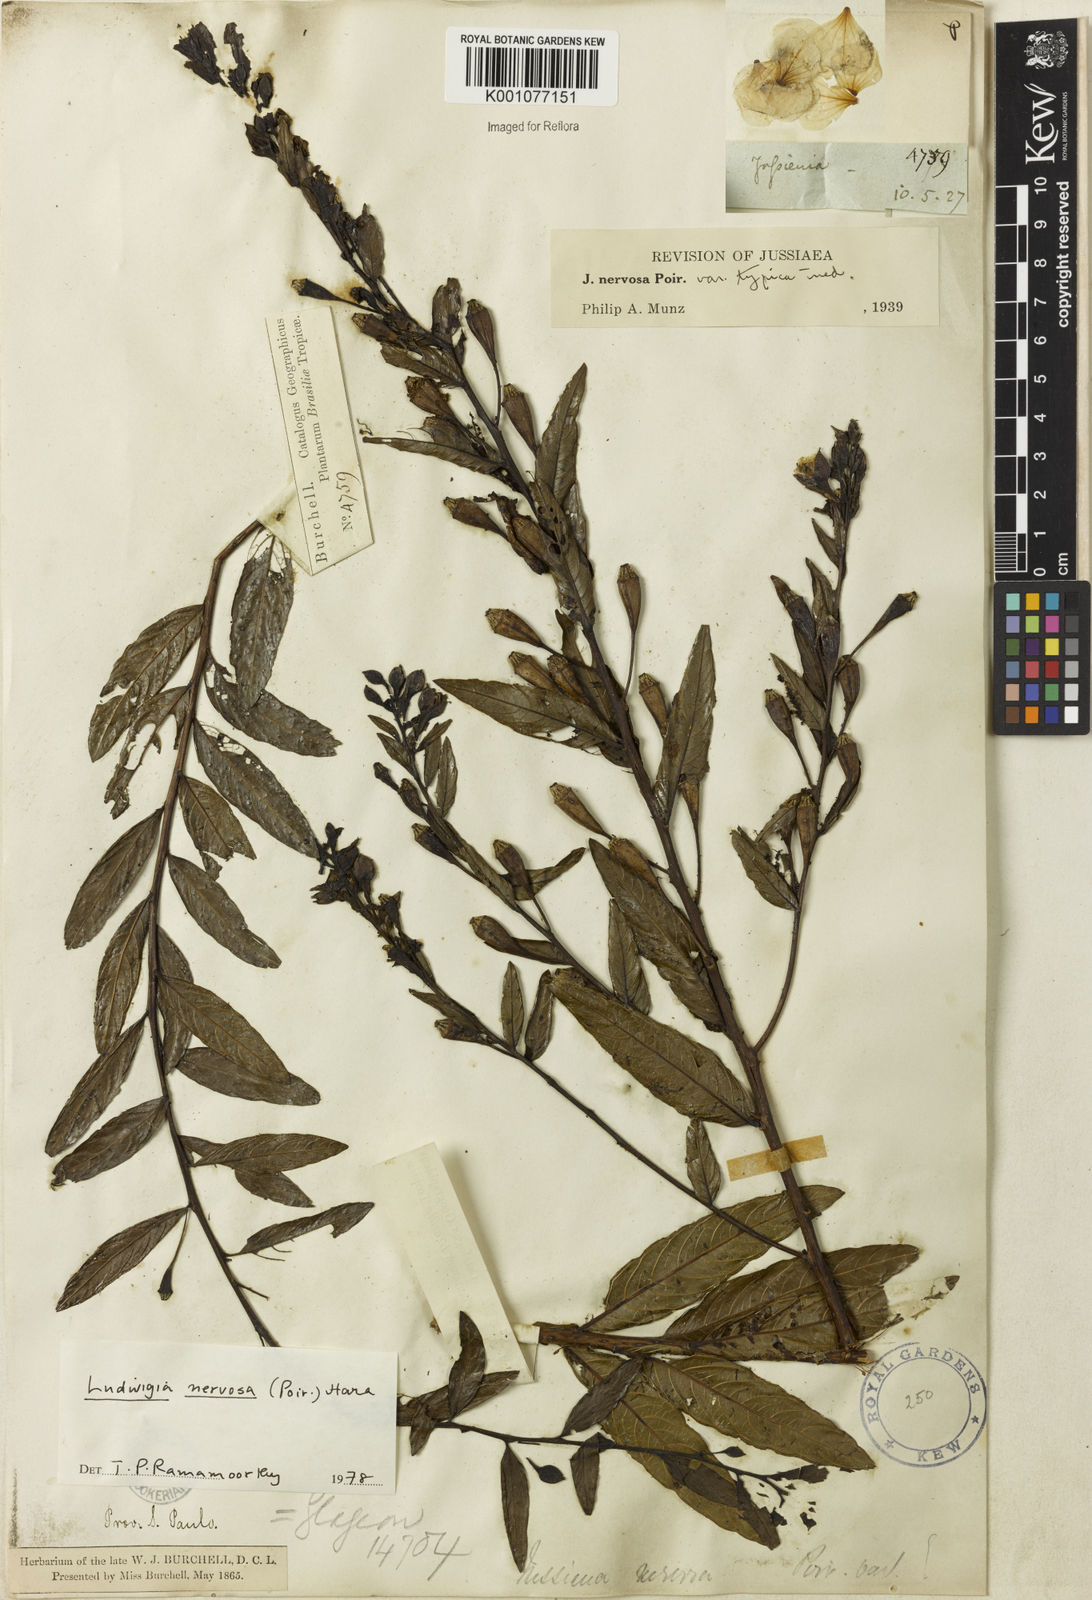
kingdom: Plantae
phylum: Tracheophyta
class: Magnoliopsida
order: Myrtales
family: Onagraceae
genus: Ludwigia
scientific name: Ludwigia nervosa
